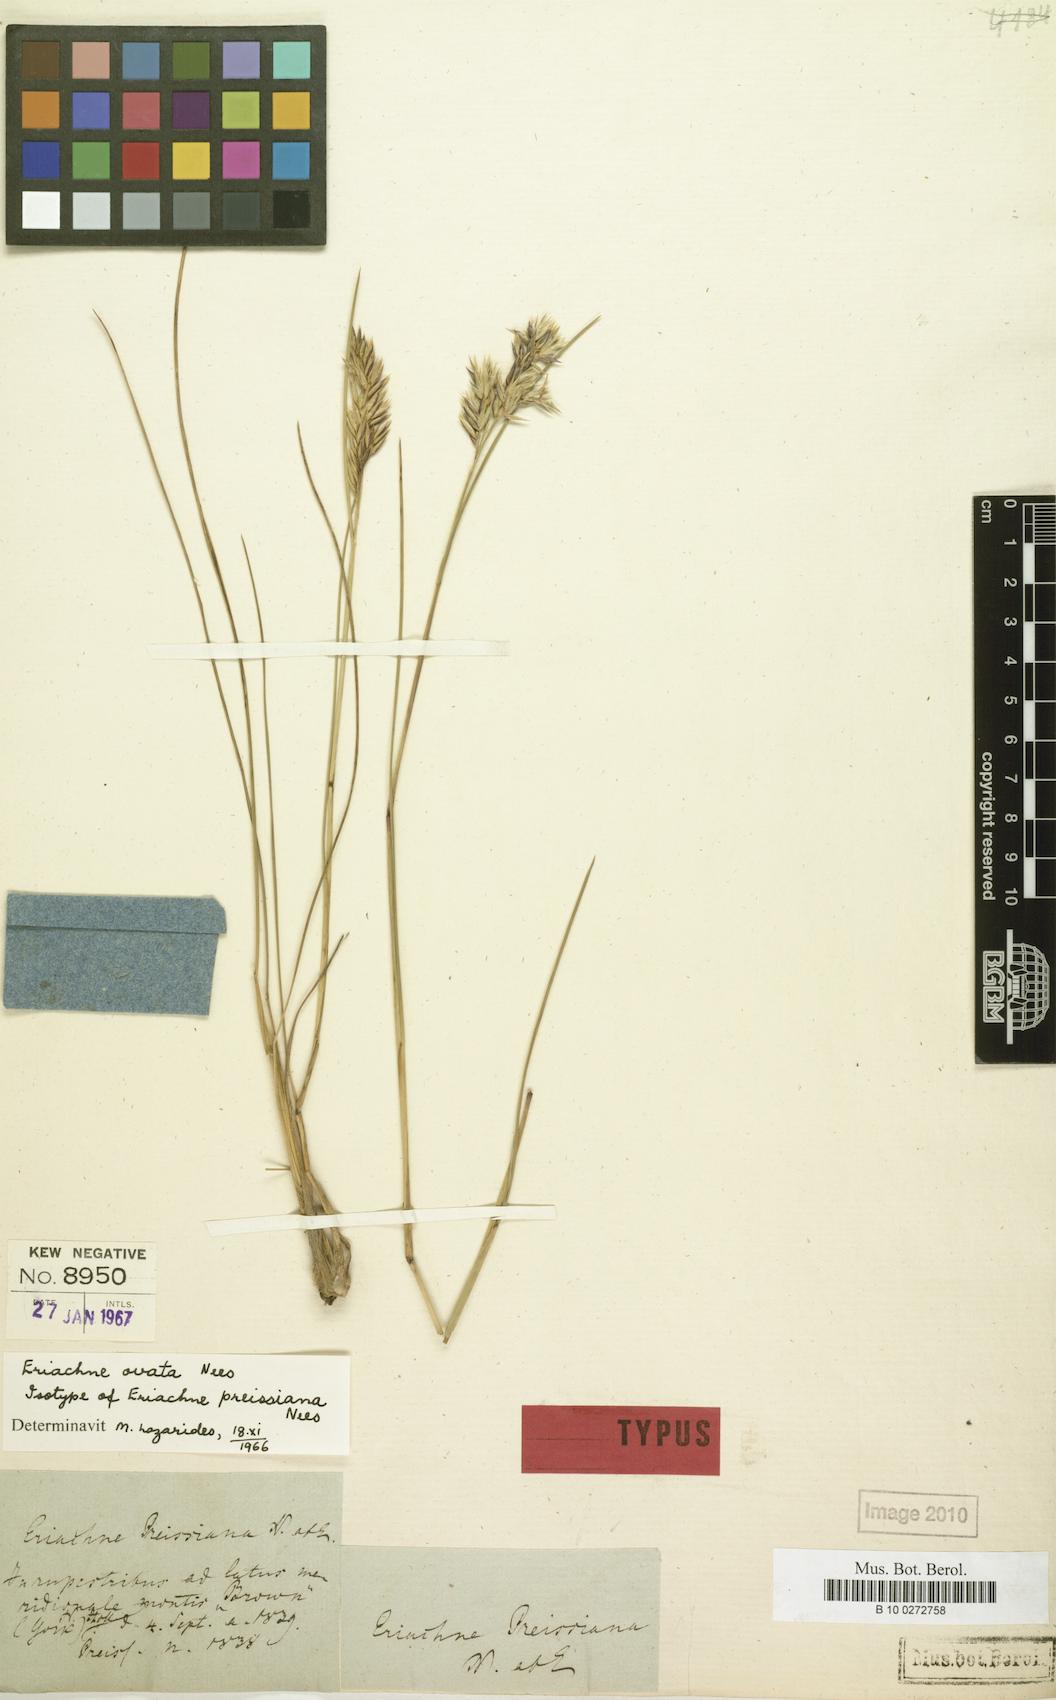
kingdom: Plantae
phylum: Tracheophyta
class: Liliopsida
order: Poales
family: Poaceae
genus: Eriachne
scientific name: Eriachne ovata
